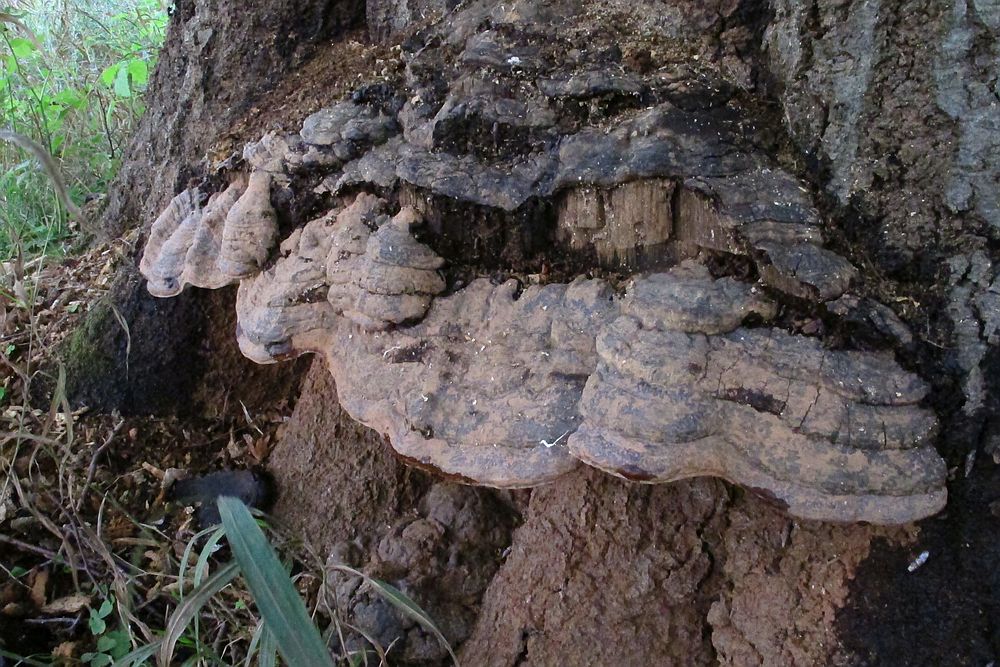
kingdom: Fungi
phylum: Basidiomycota
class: Agaricomycetes
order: Polyporales
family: Polyporaceae
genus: Ganoderma
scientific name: Ganoderma adspersum
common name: grov lakporesvamp
